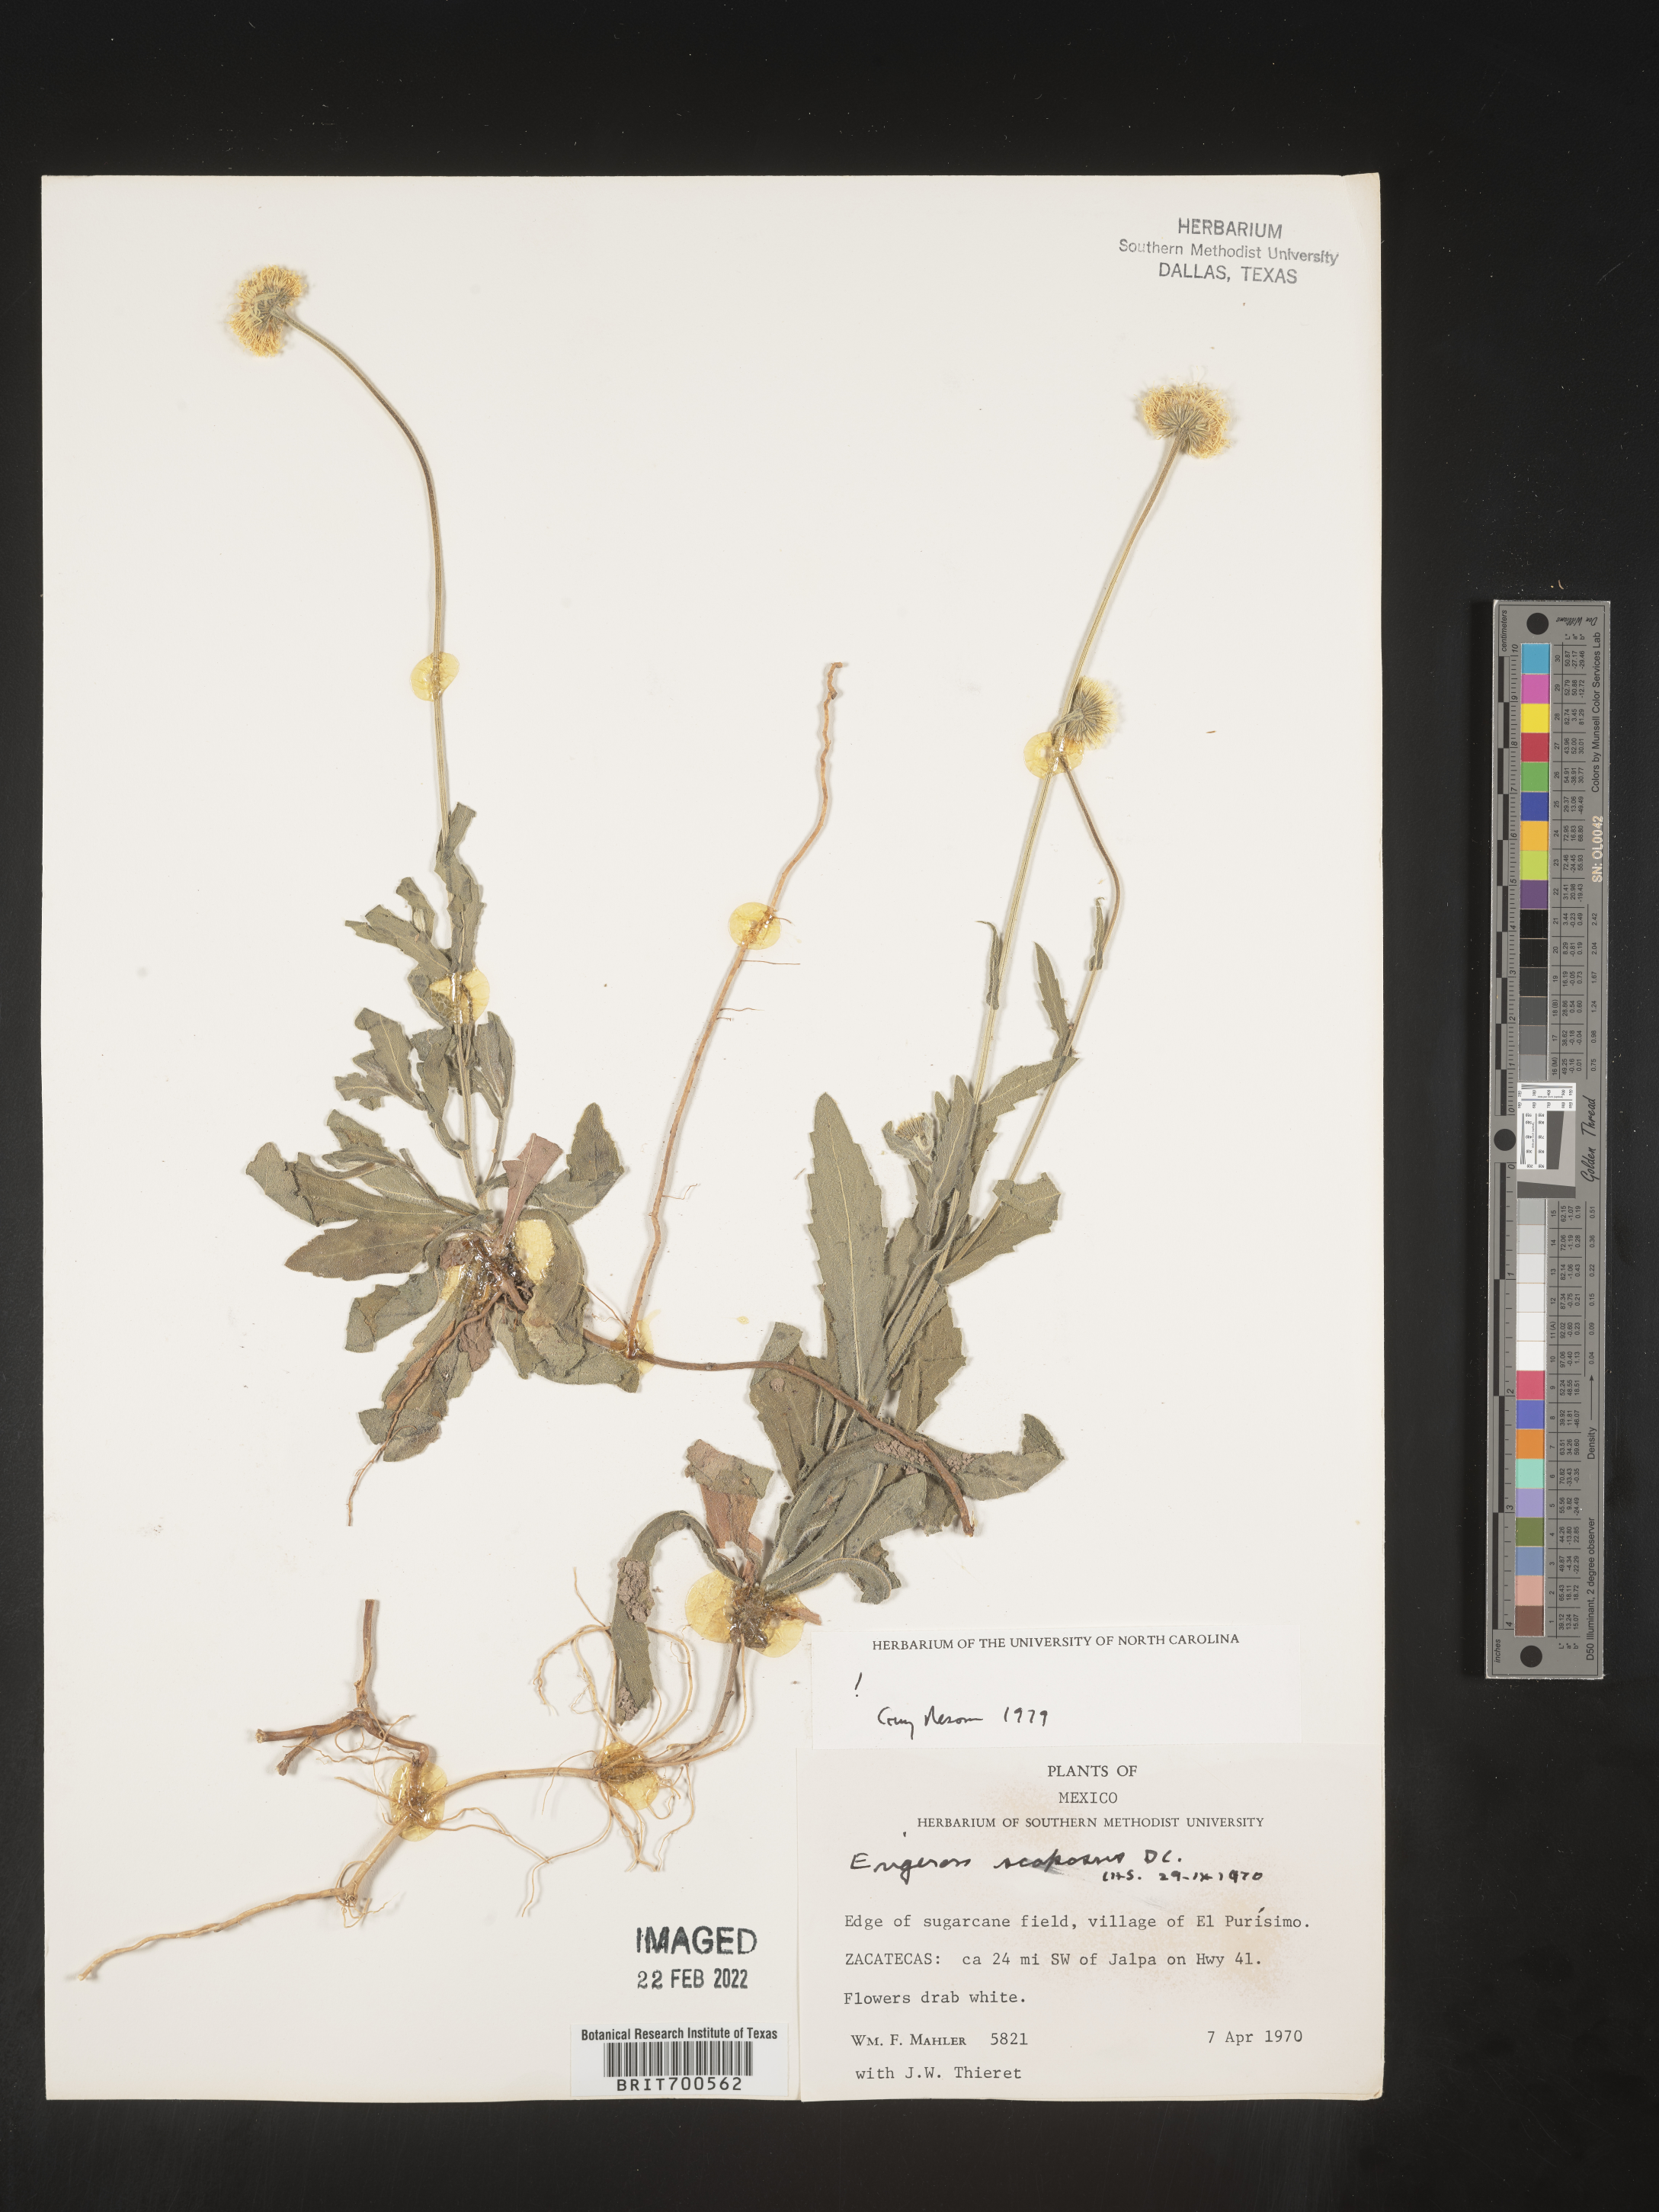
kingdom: Plantae
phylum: Tracheophyta
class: Magnoliopsida
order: Asterales
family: Asteraceae
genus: Erigeron
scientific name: Erigeron longipes
